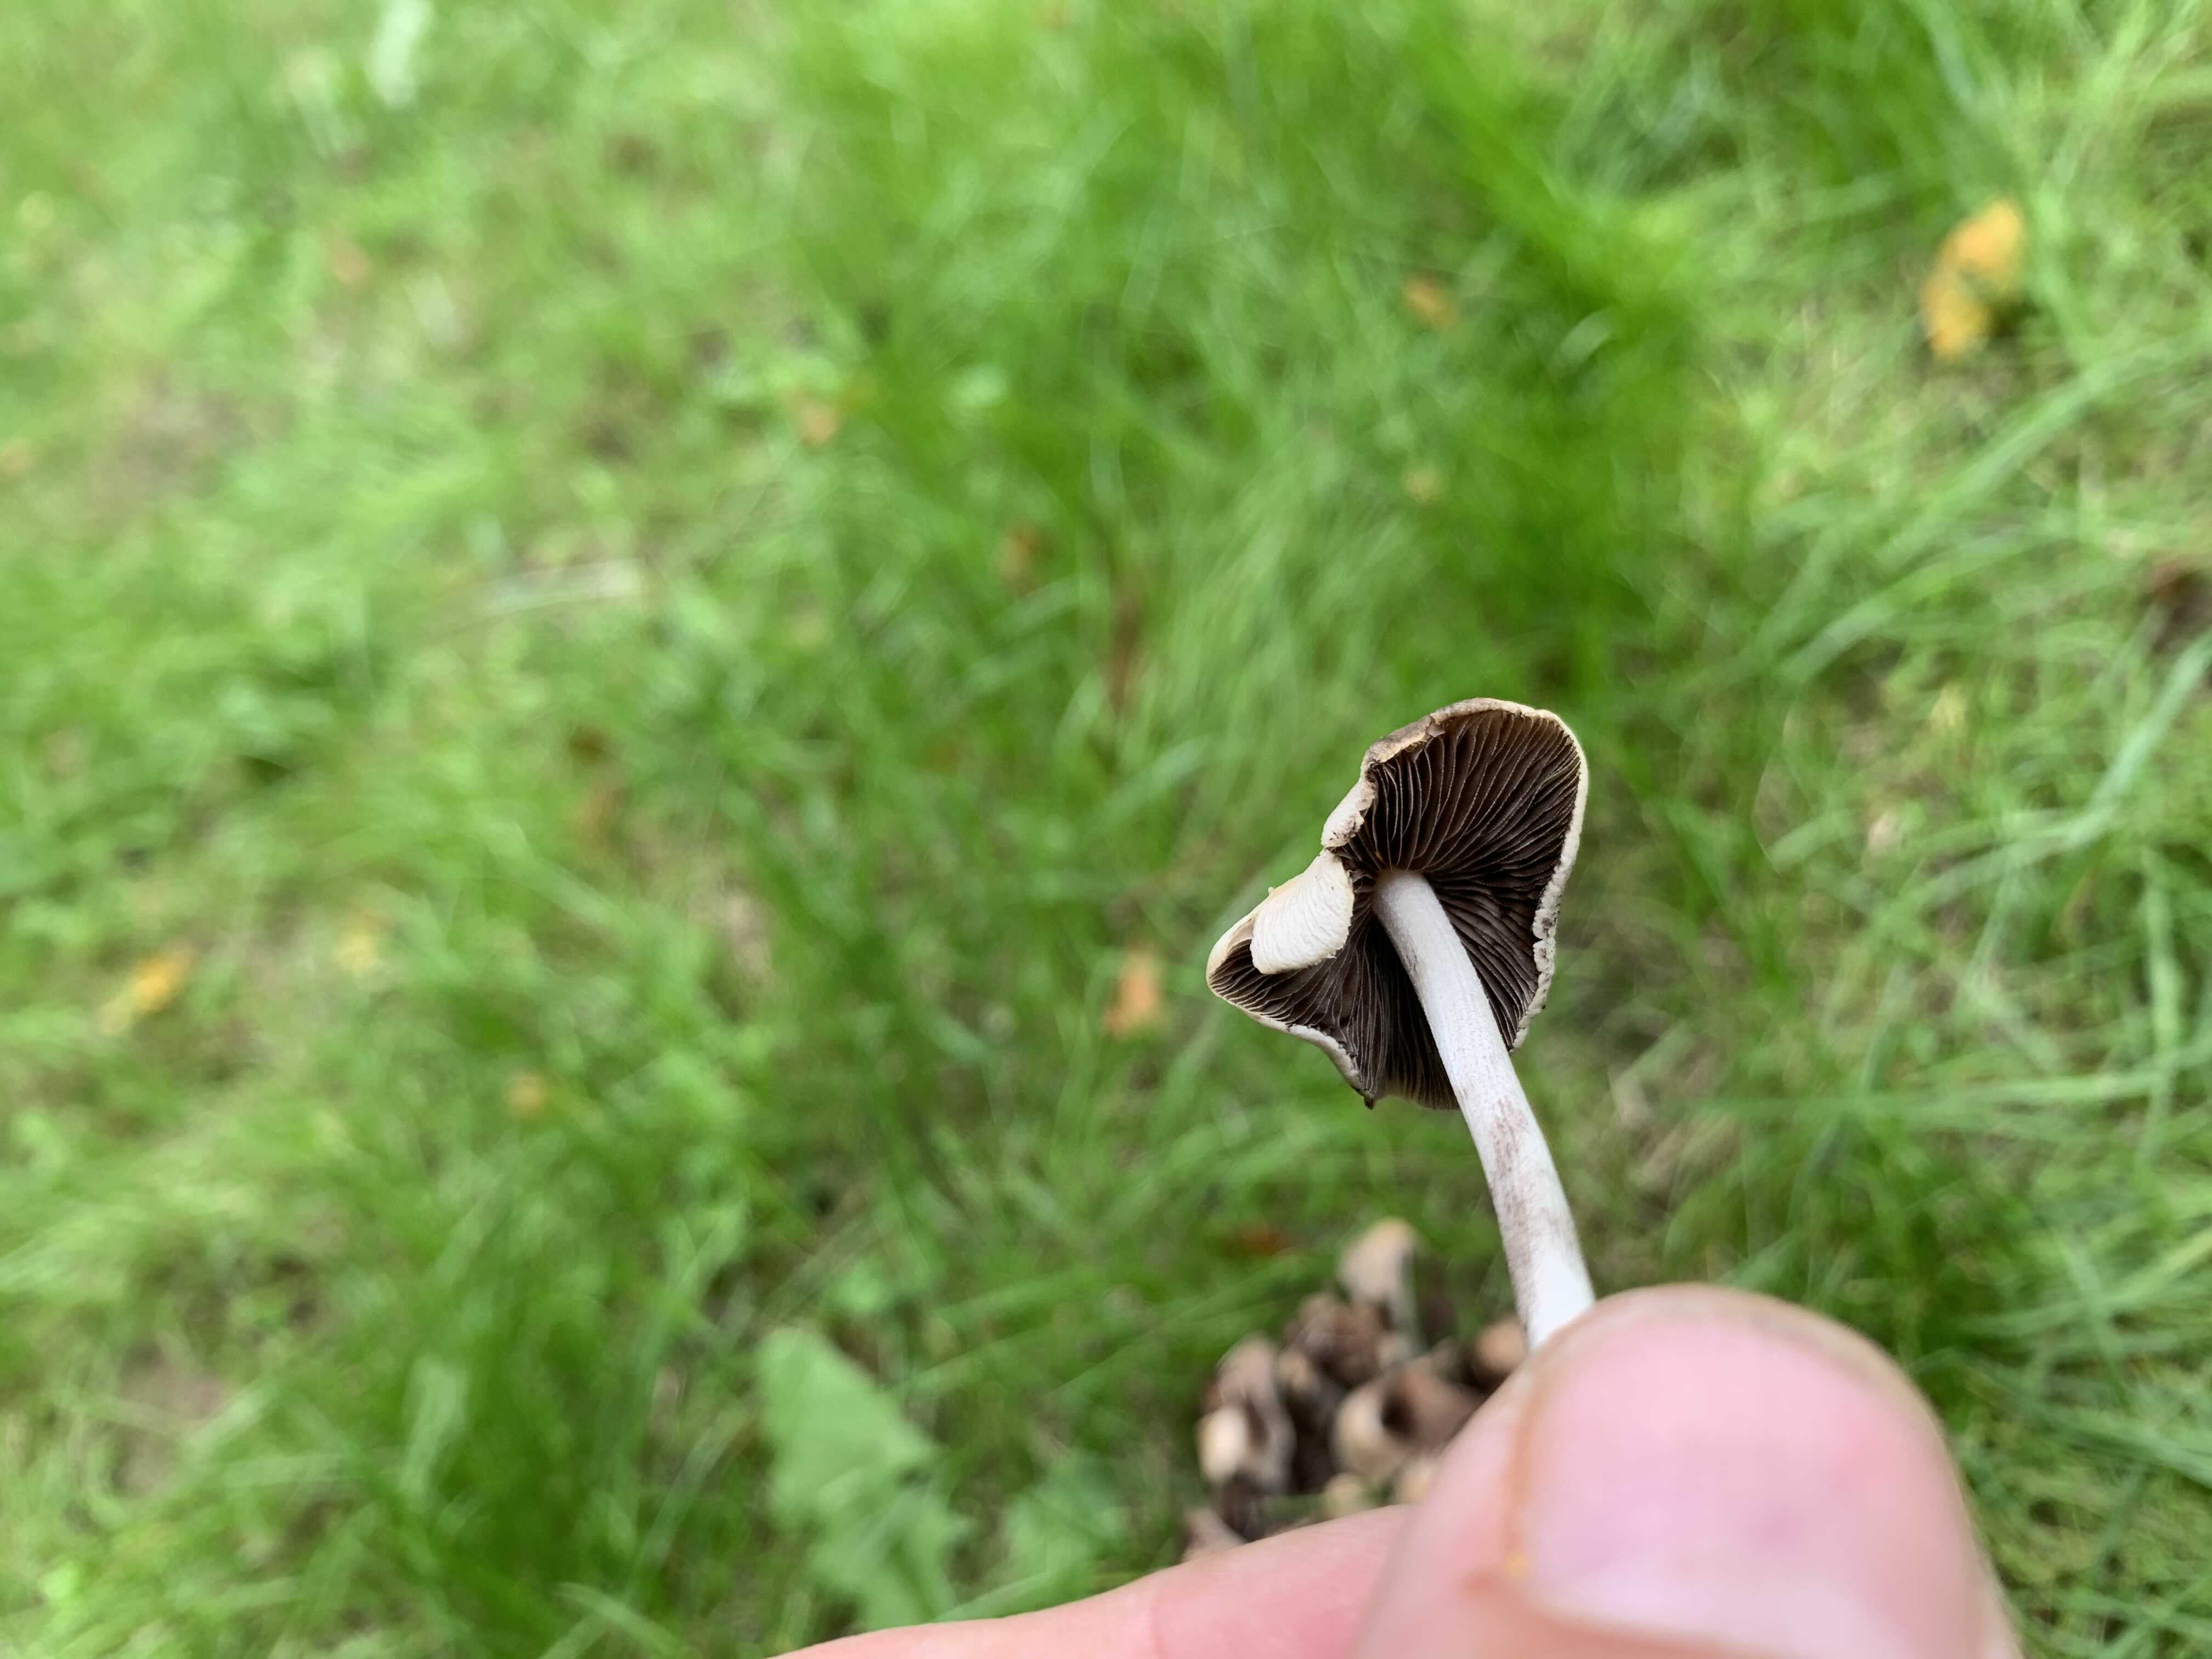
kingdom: Fungi
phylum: Basidiomycota
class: Agaricomycetes
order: Agaricales
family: Psathyrellaceae
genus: Britzelmayria
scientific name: Britzelmayria multipedata
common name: knippe-mørkhat
